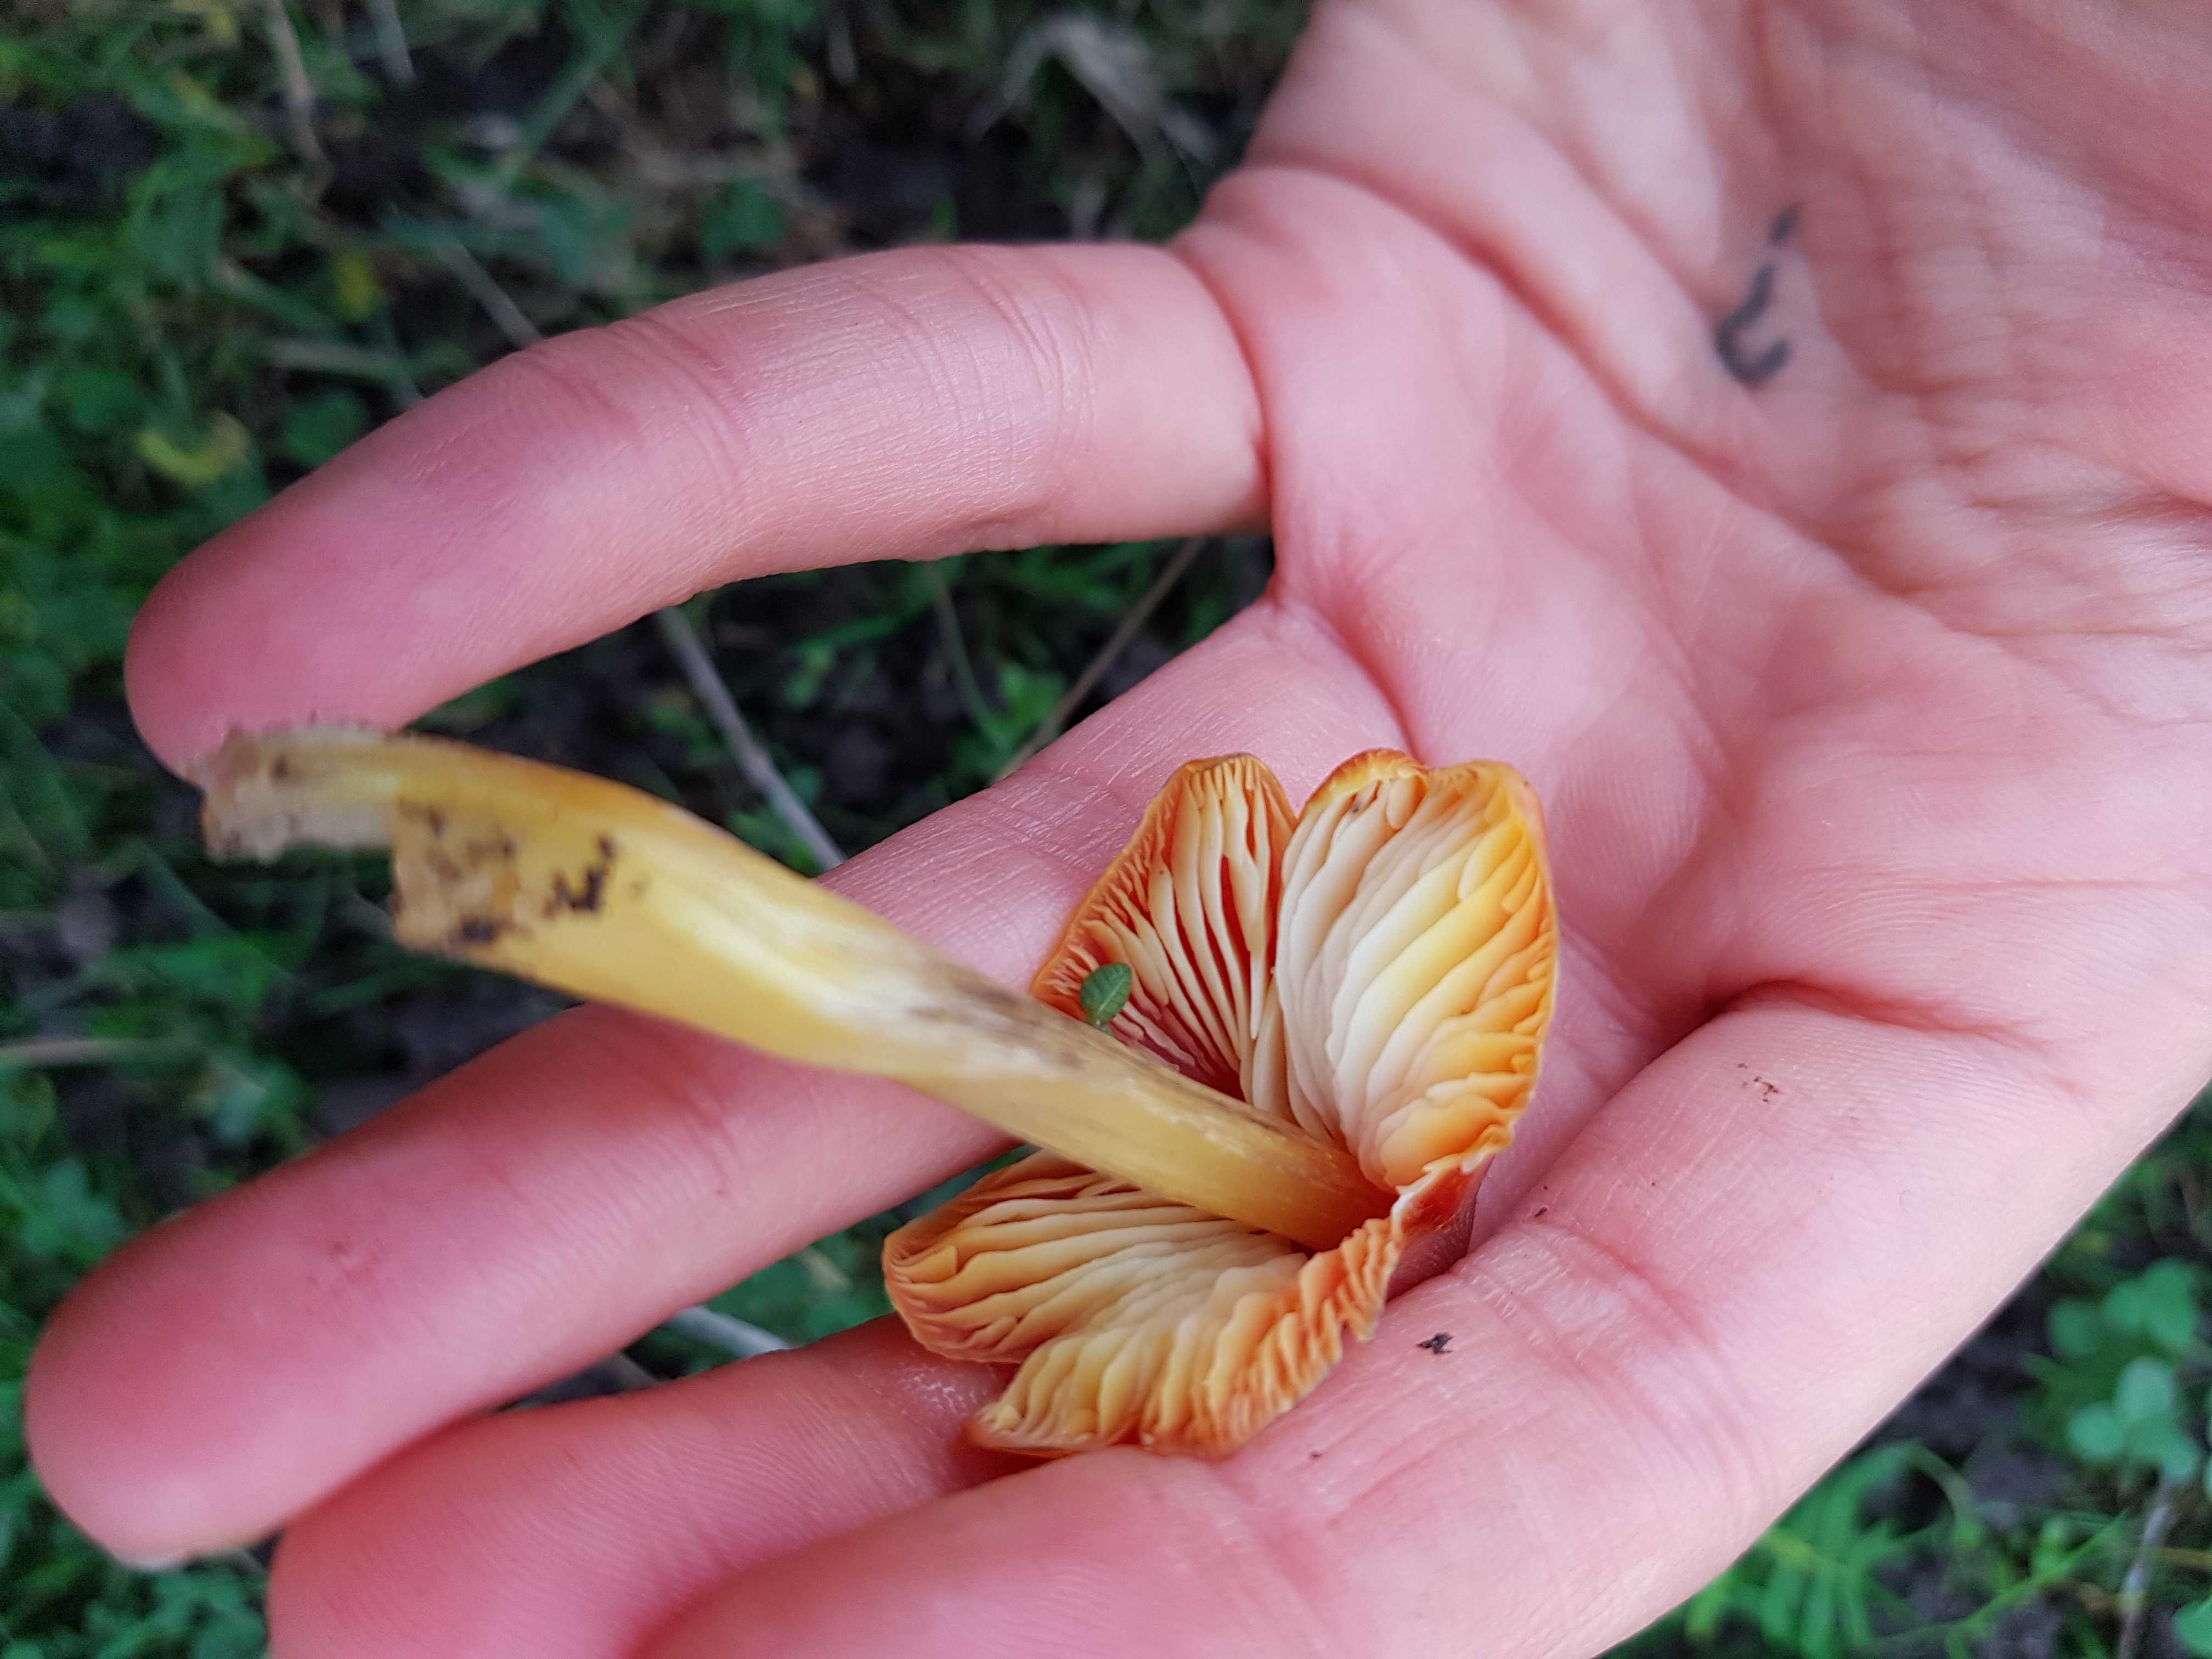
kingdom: Fungi
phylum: Basidiomycota
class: Agaricomycetes
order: Agaricales
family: Hygrophoraceae
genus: Hygrocybe
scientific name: Hygrocybe conica
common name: kegle-vokshat
